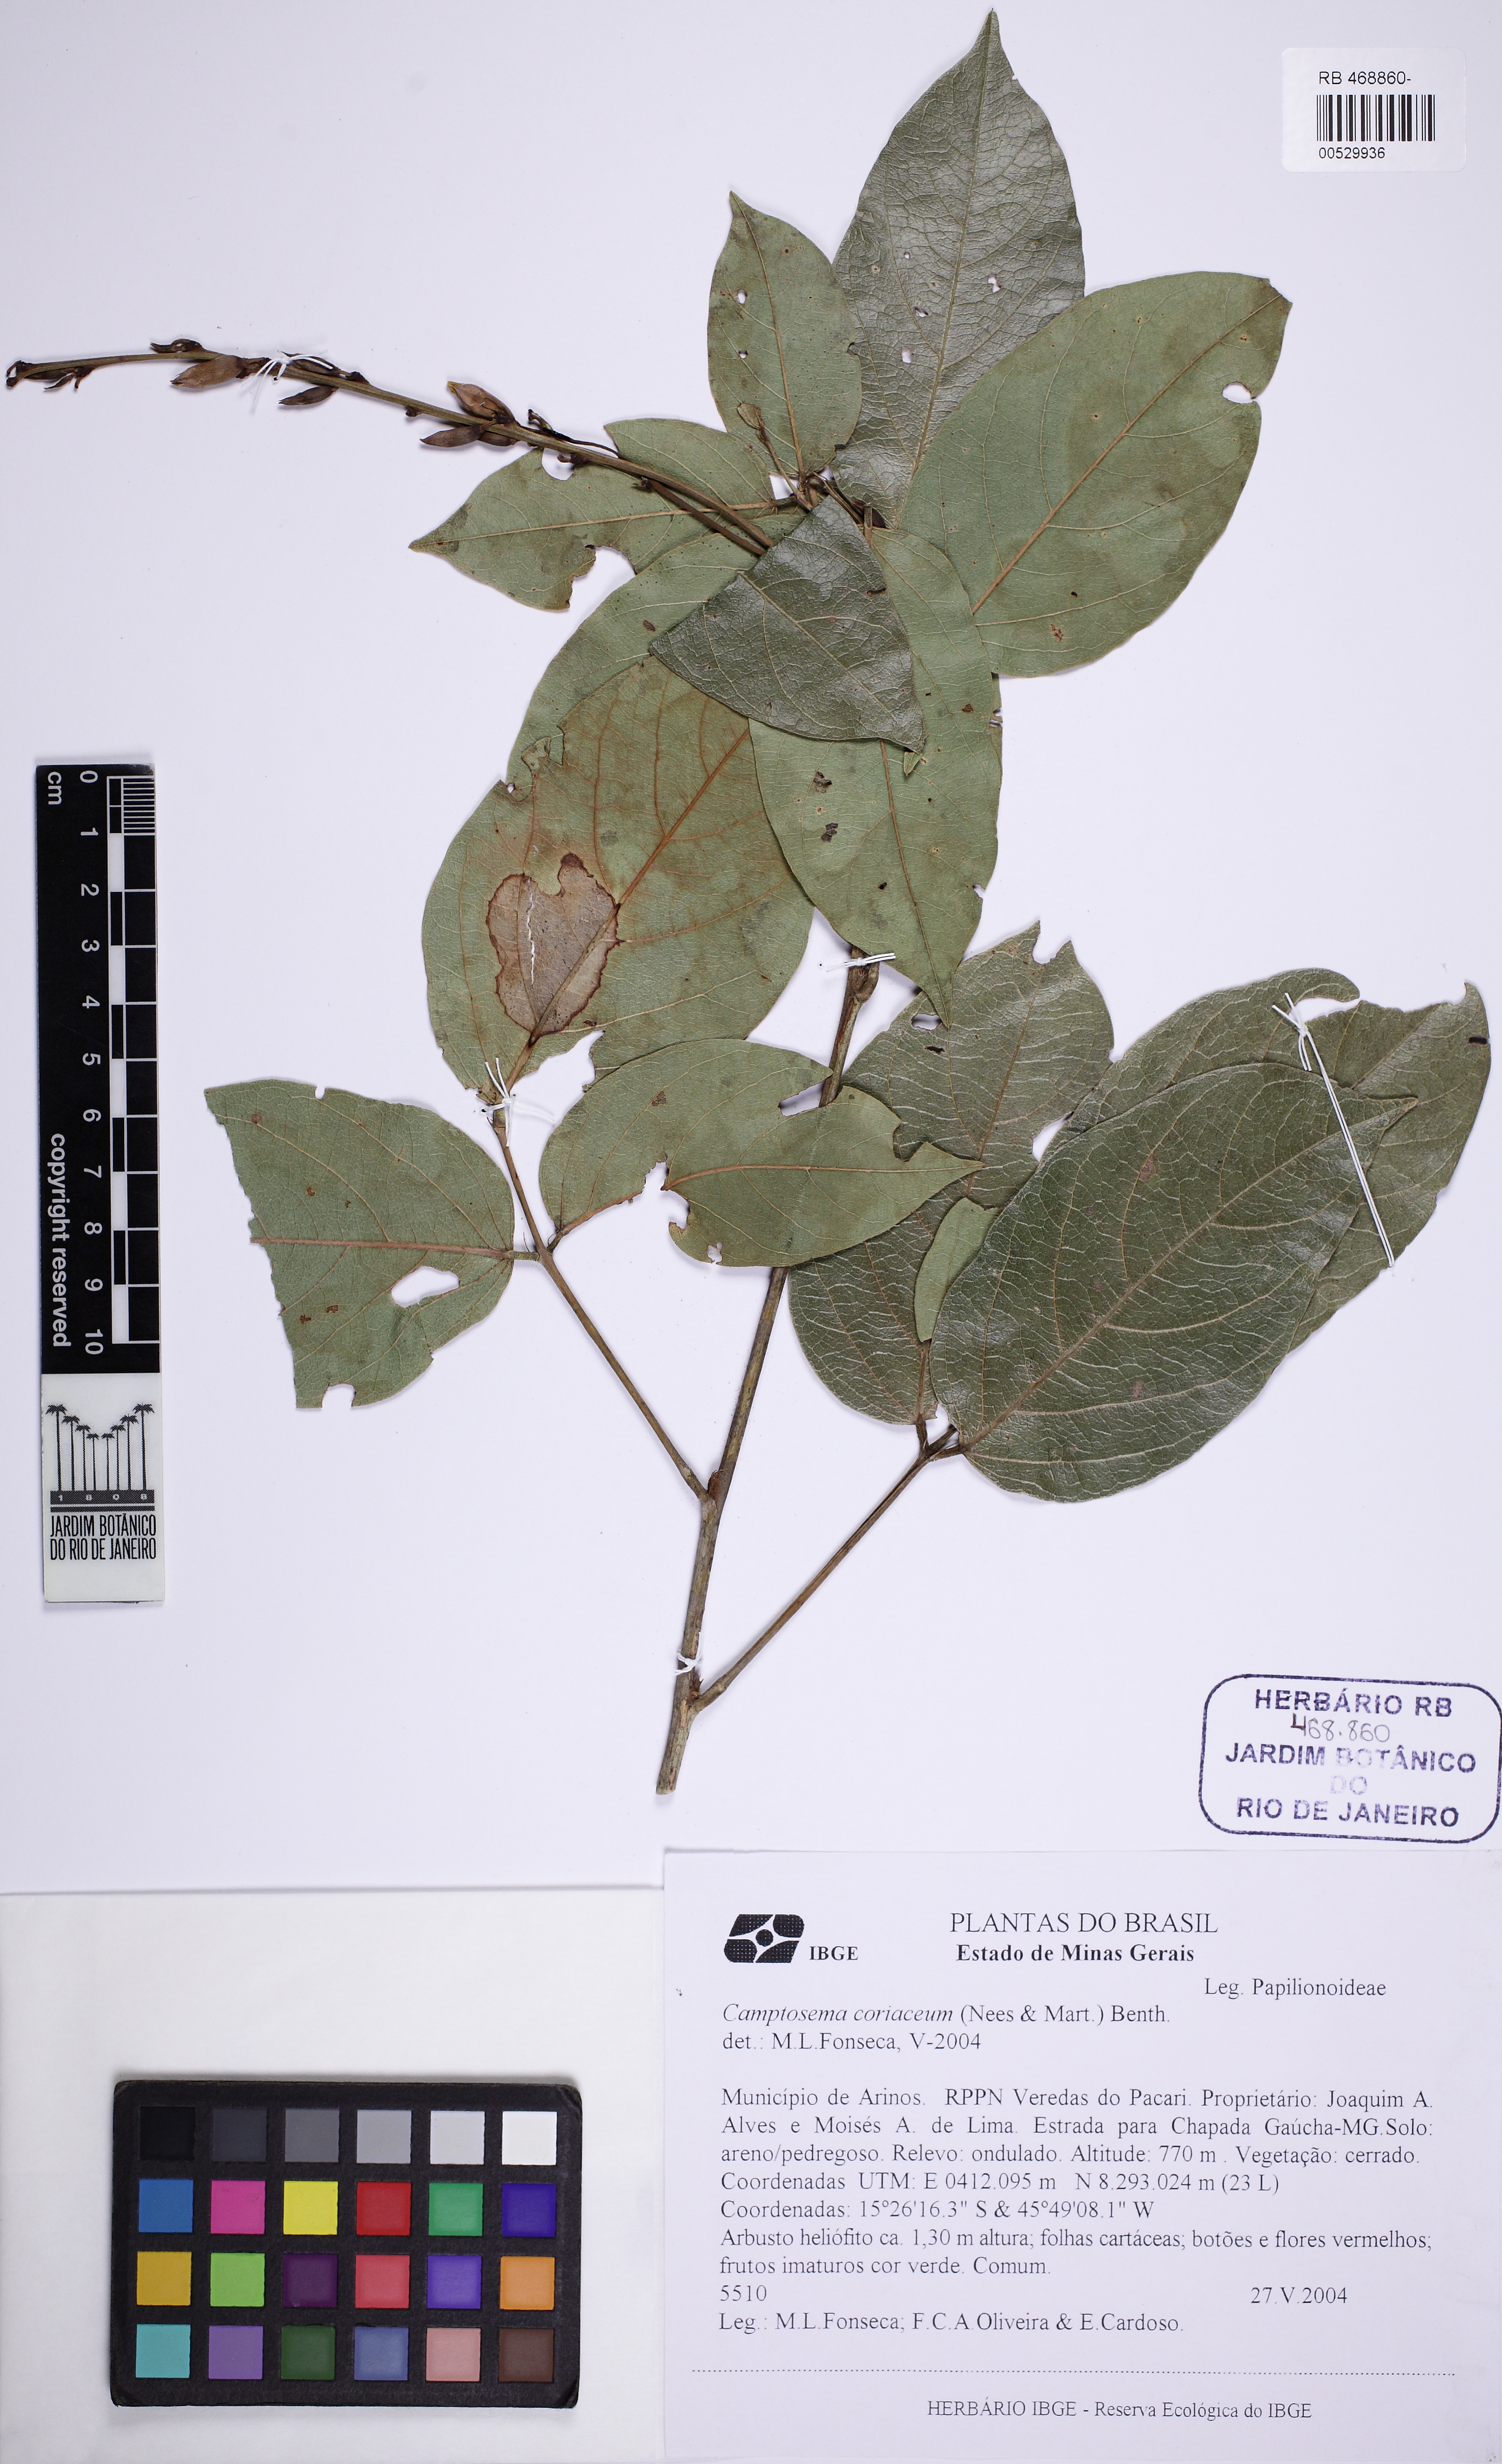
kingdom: Plantae
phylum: Tracheophyta
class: Magnoliopsida
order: Fabales
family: Fabaceae
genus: Camptosema
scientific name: Camptosema coriaceum
